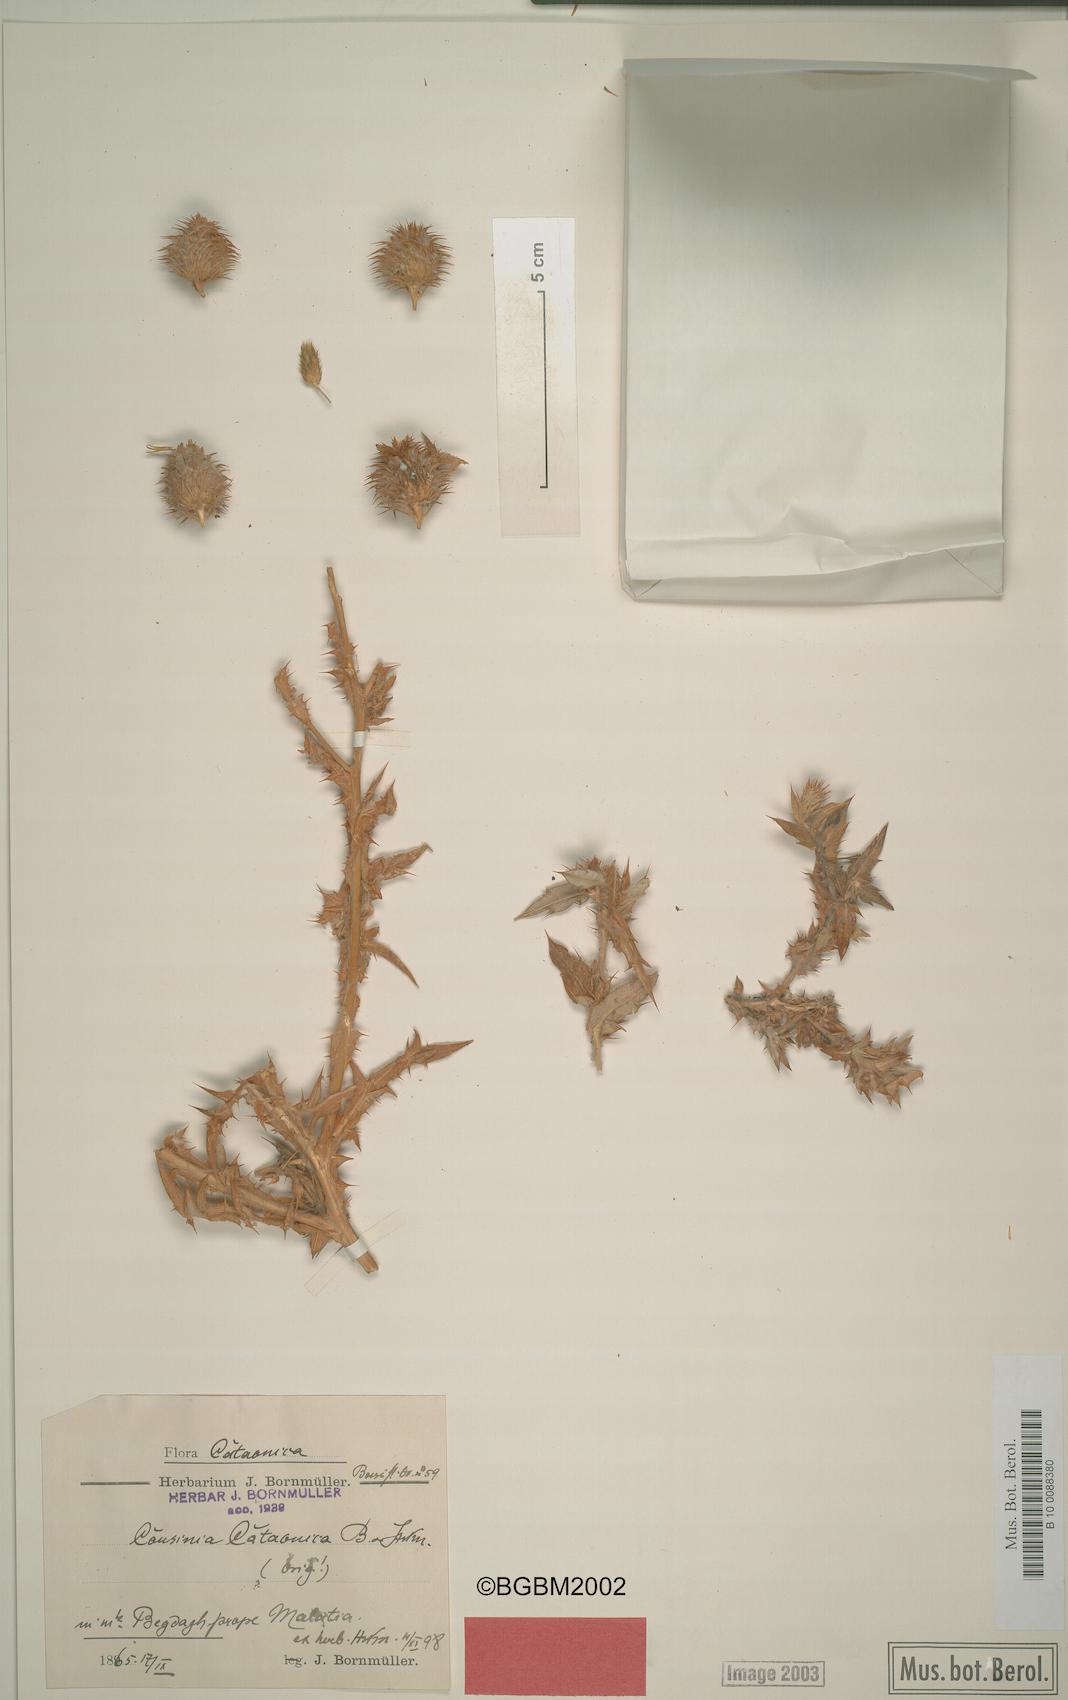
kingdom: Plantae
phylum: Tracheophyta
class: Magnoliopsida
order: Asterales
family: Asteraceae
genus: Cousinia
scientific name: Cousinia cataonica
